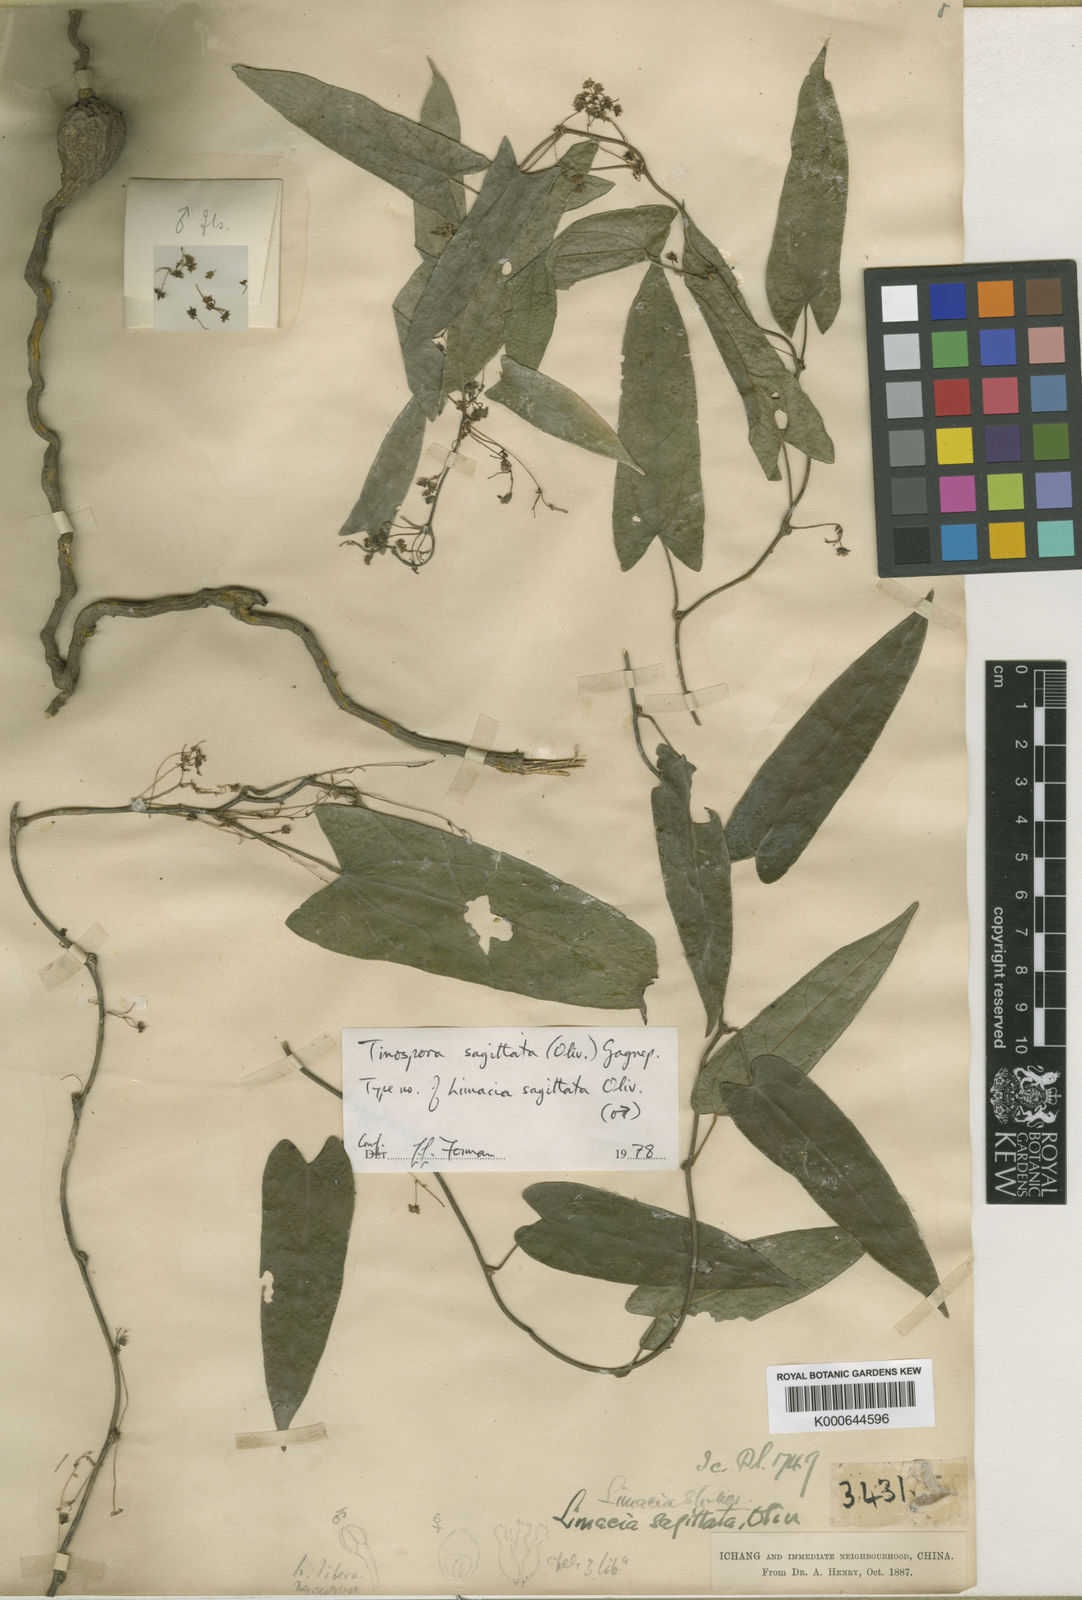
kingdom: Plantae
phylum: Tracheophyta
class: Magnoliopsida
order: Ranunculales
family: Menispermaceae
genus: Paratinospora
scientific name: Paratinospora sagittata
